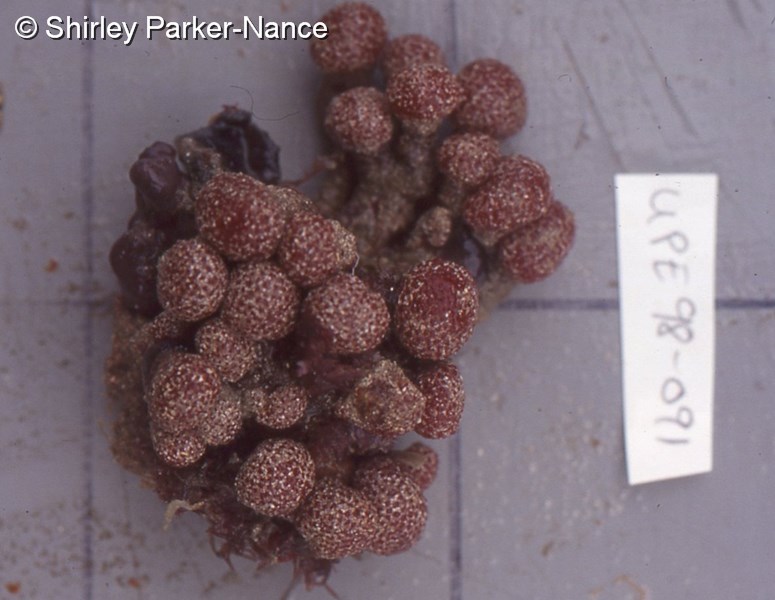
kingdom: Animalia
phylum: Chordata
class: Ascidiacea
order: Aplousobranchia
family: Polyclinidae
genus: Aplidiopsis
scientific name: Aplidiopsis tubiferus
